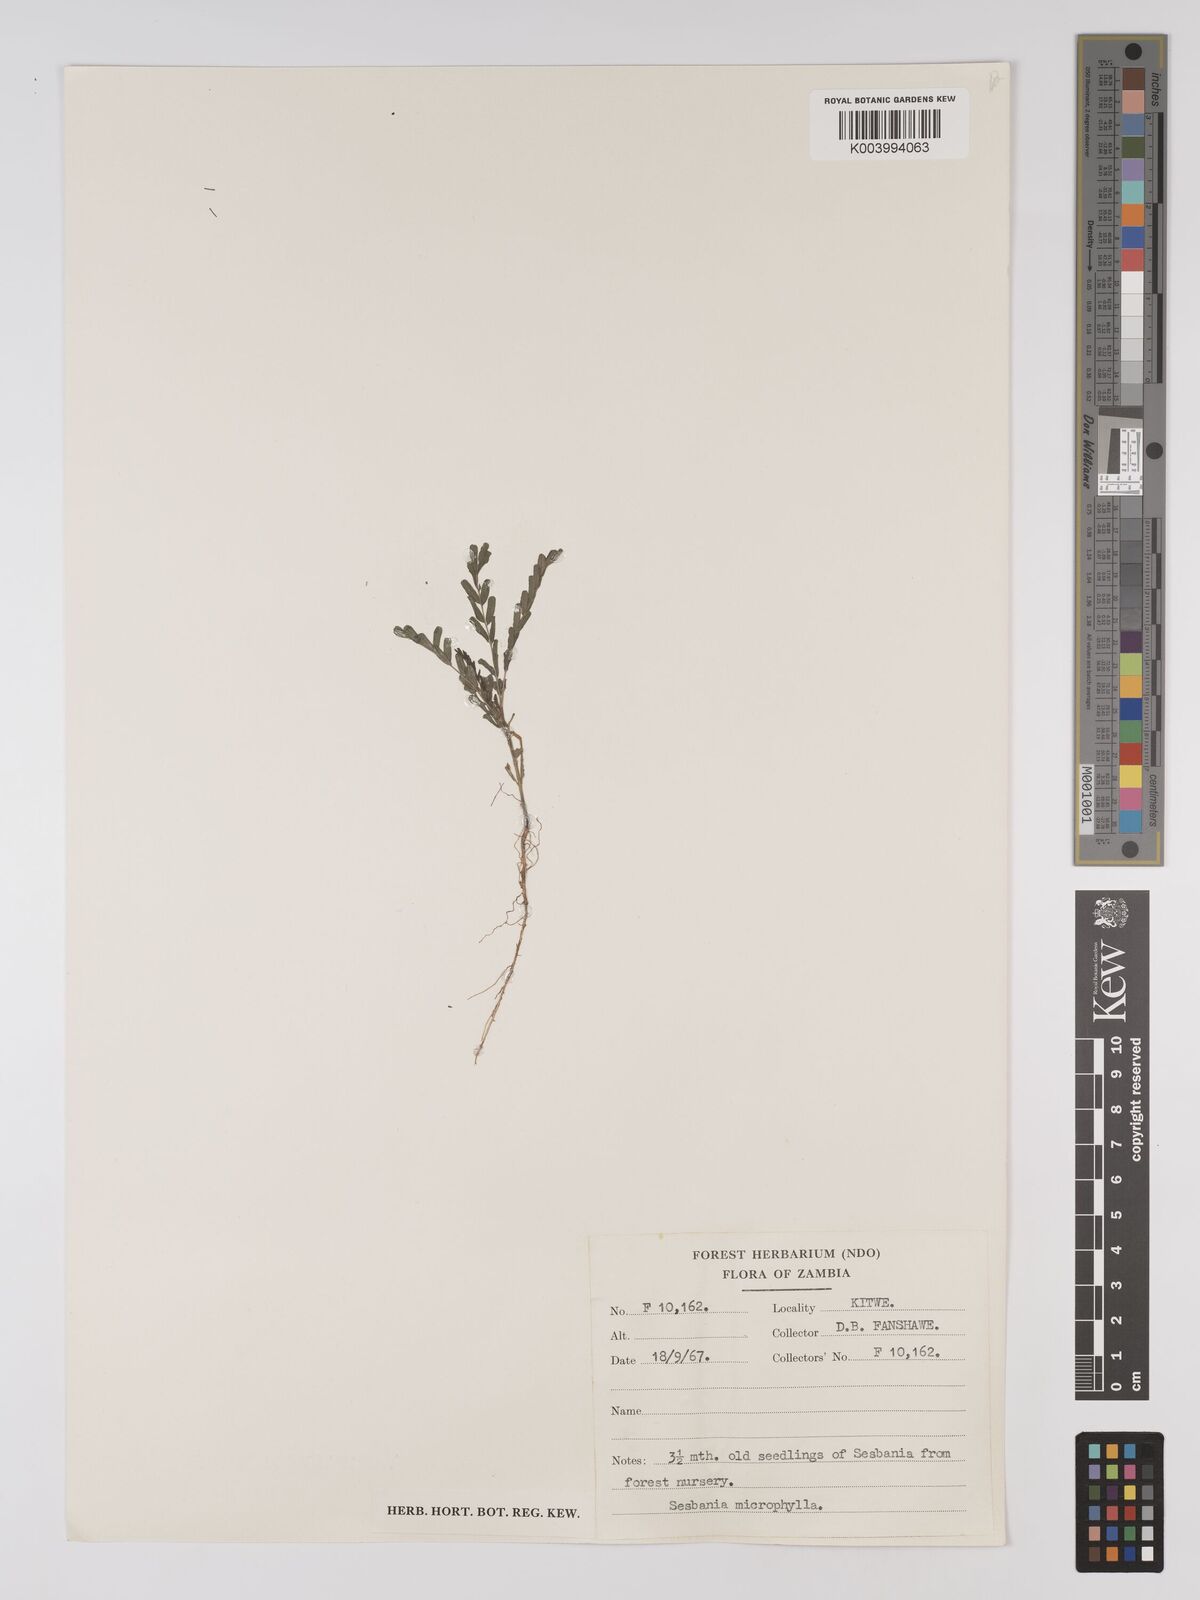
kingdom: Plantae
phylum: Tracheophyta
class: Magnoliopsida
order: Fabales
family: Fabaceae
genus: Sesbania
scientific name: Sesbania microphylla
